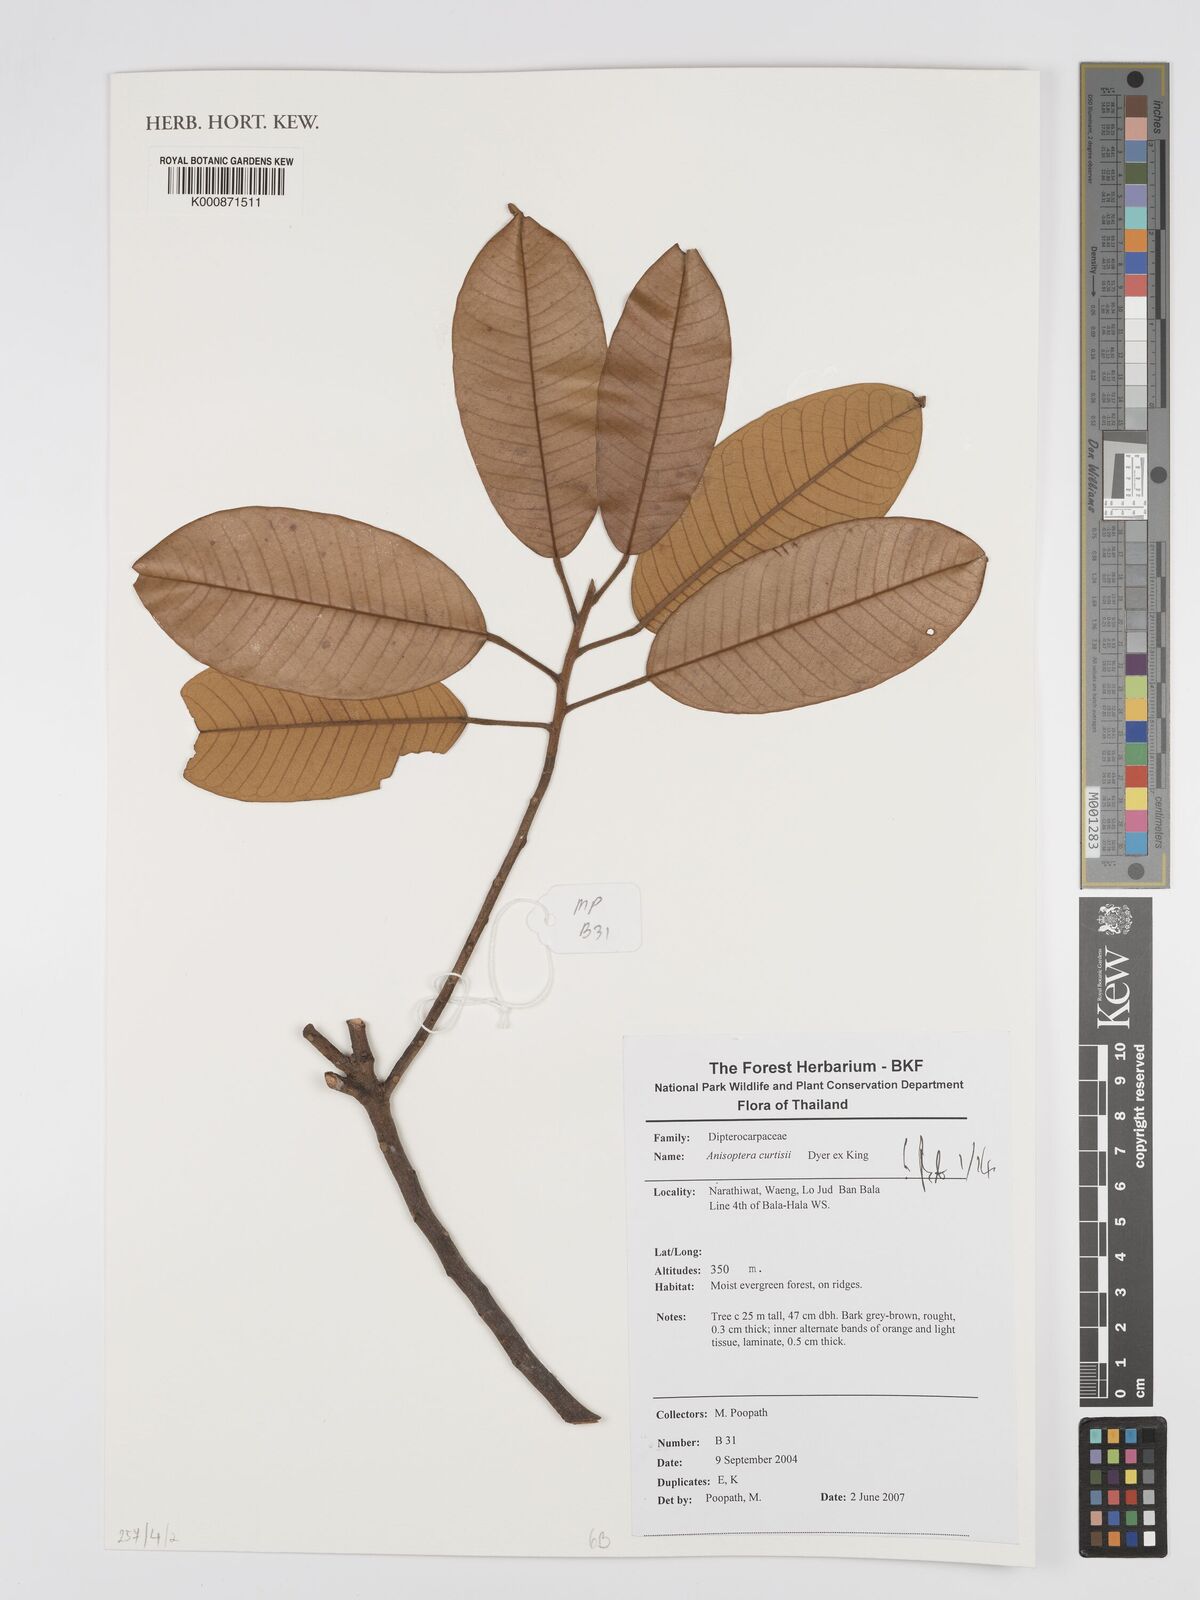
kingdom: Plantae
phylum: Tracheophyta
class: Magnoliopsida
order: Malvales
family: Dipterocarpaceae
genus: Anisoptera
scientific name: Anisoptera curtisii
